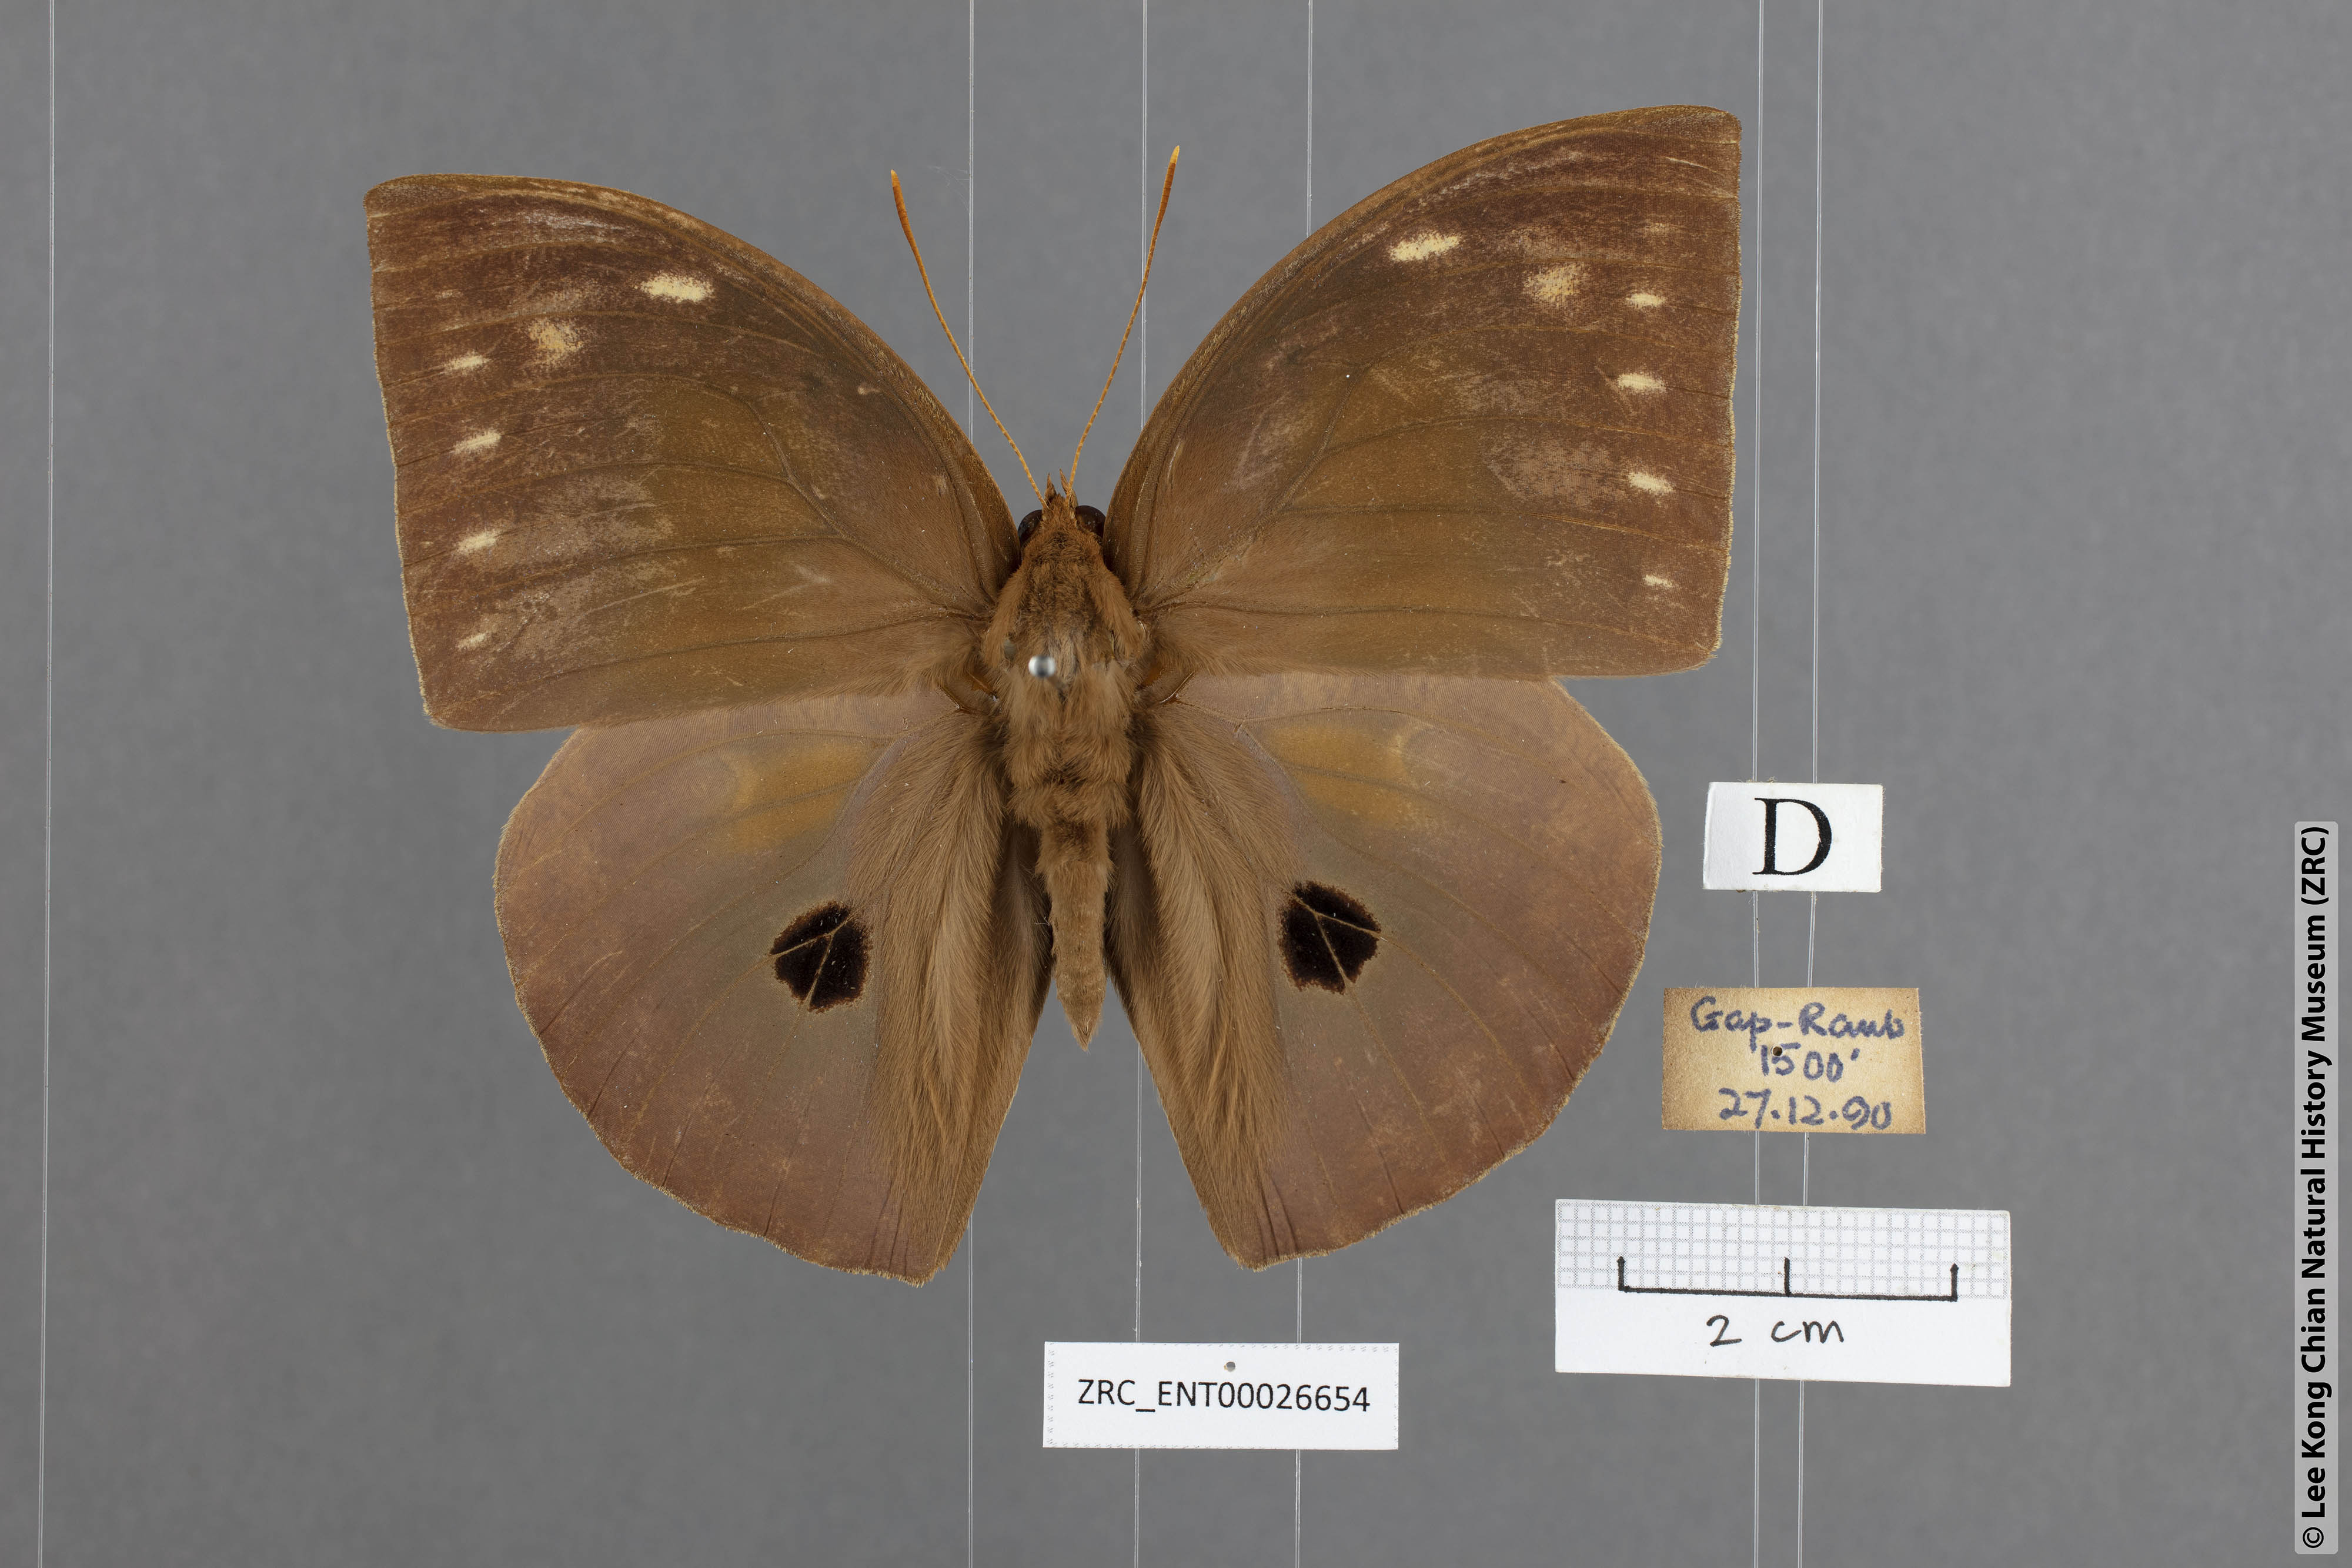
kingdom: Animalia
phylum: Arthropoda
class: Insecta
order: Lepidoptera
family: Nymphalidae
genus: Discophora
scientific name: Discophora timora
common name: Great duffer
